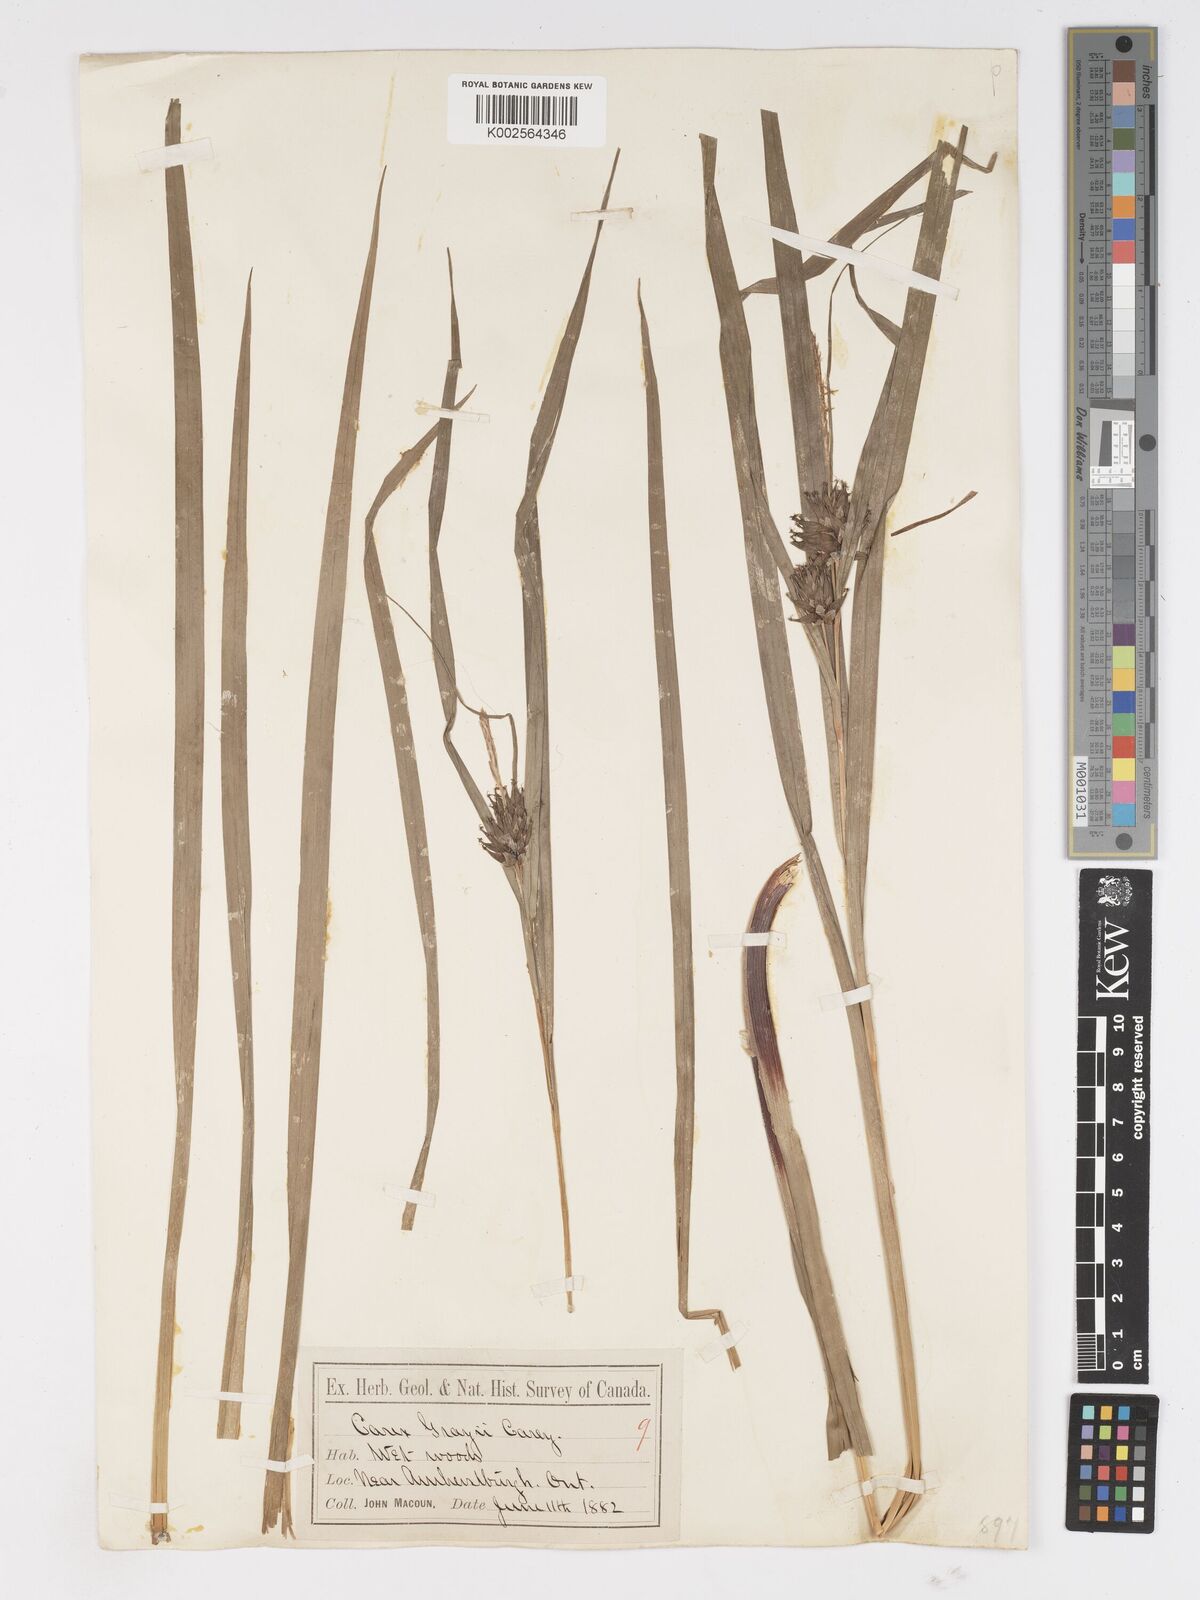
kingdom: Plantae
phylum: Tracheophyta
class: Liliopsida
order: Poales
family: Cyperaceae
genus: Carex
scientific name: Carex grayi
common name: Asa gray's sedge
